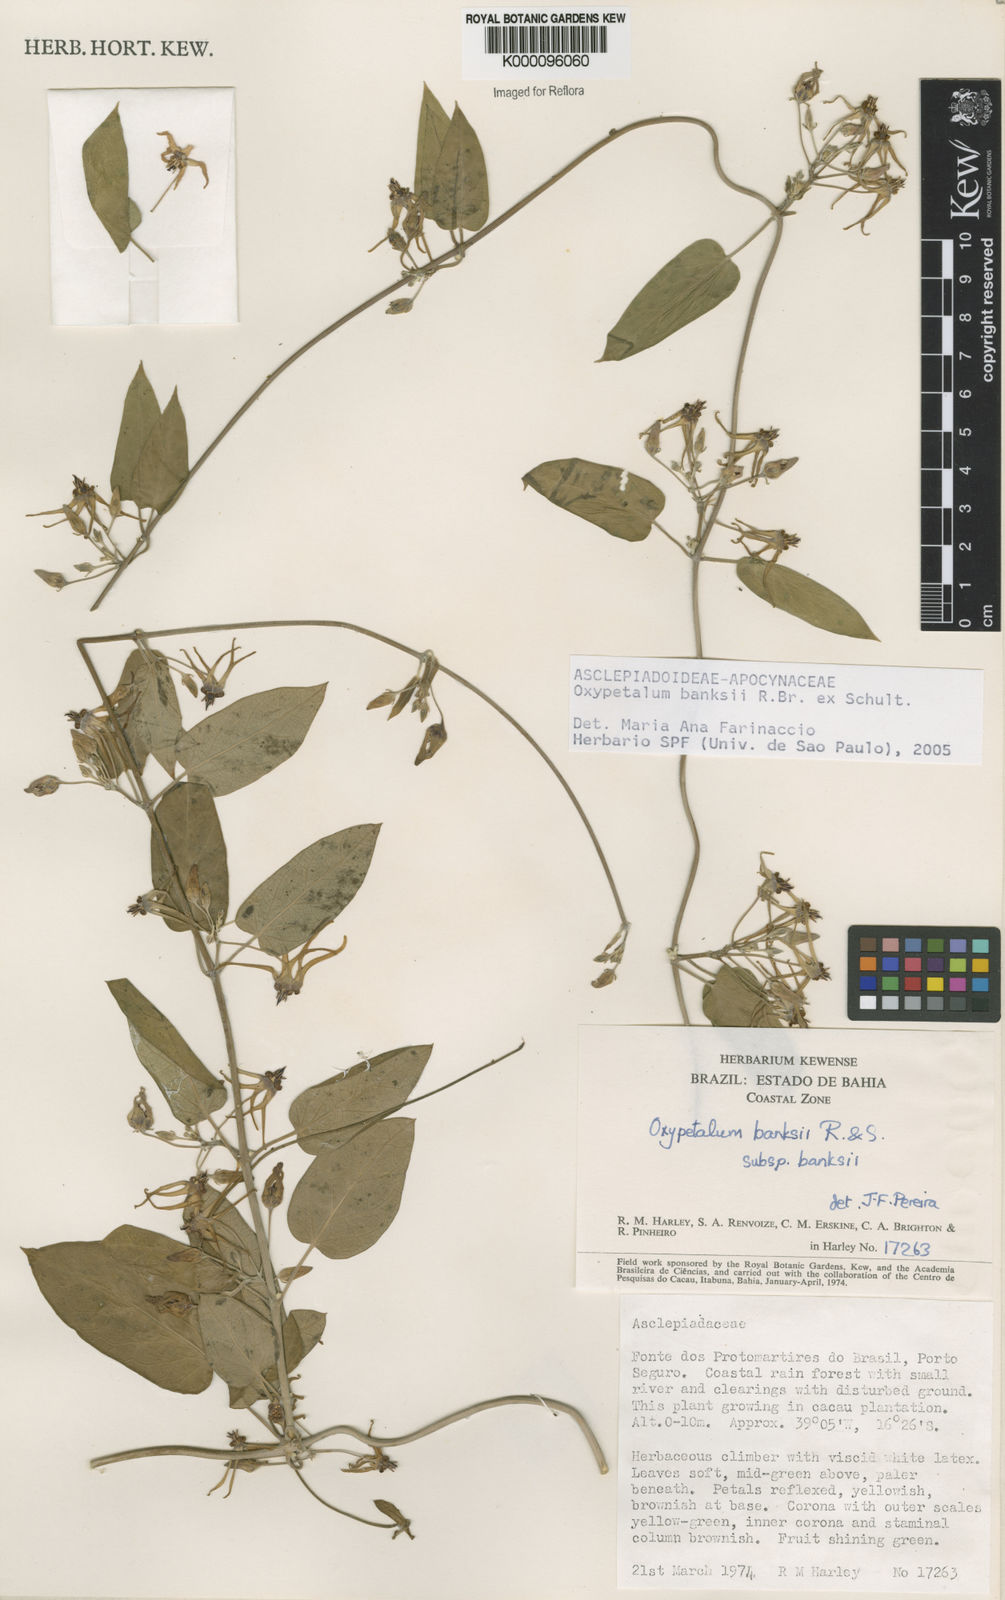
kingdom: Plantae
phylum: Tracheophyta
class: Magnoliopsida
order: Gentianales
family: Apocynaceae
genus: Oxypetalum
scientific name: Oxypetalum banksii
